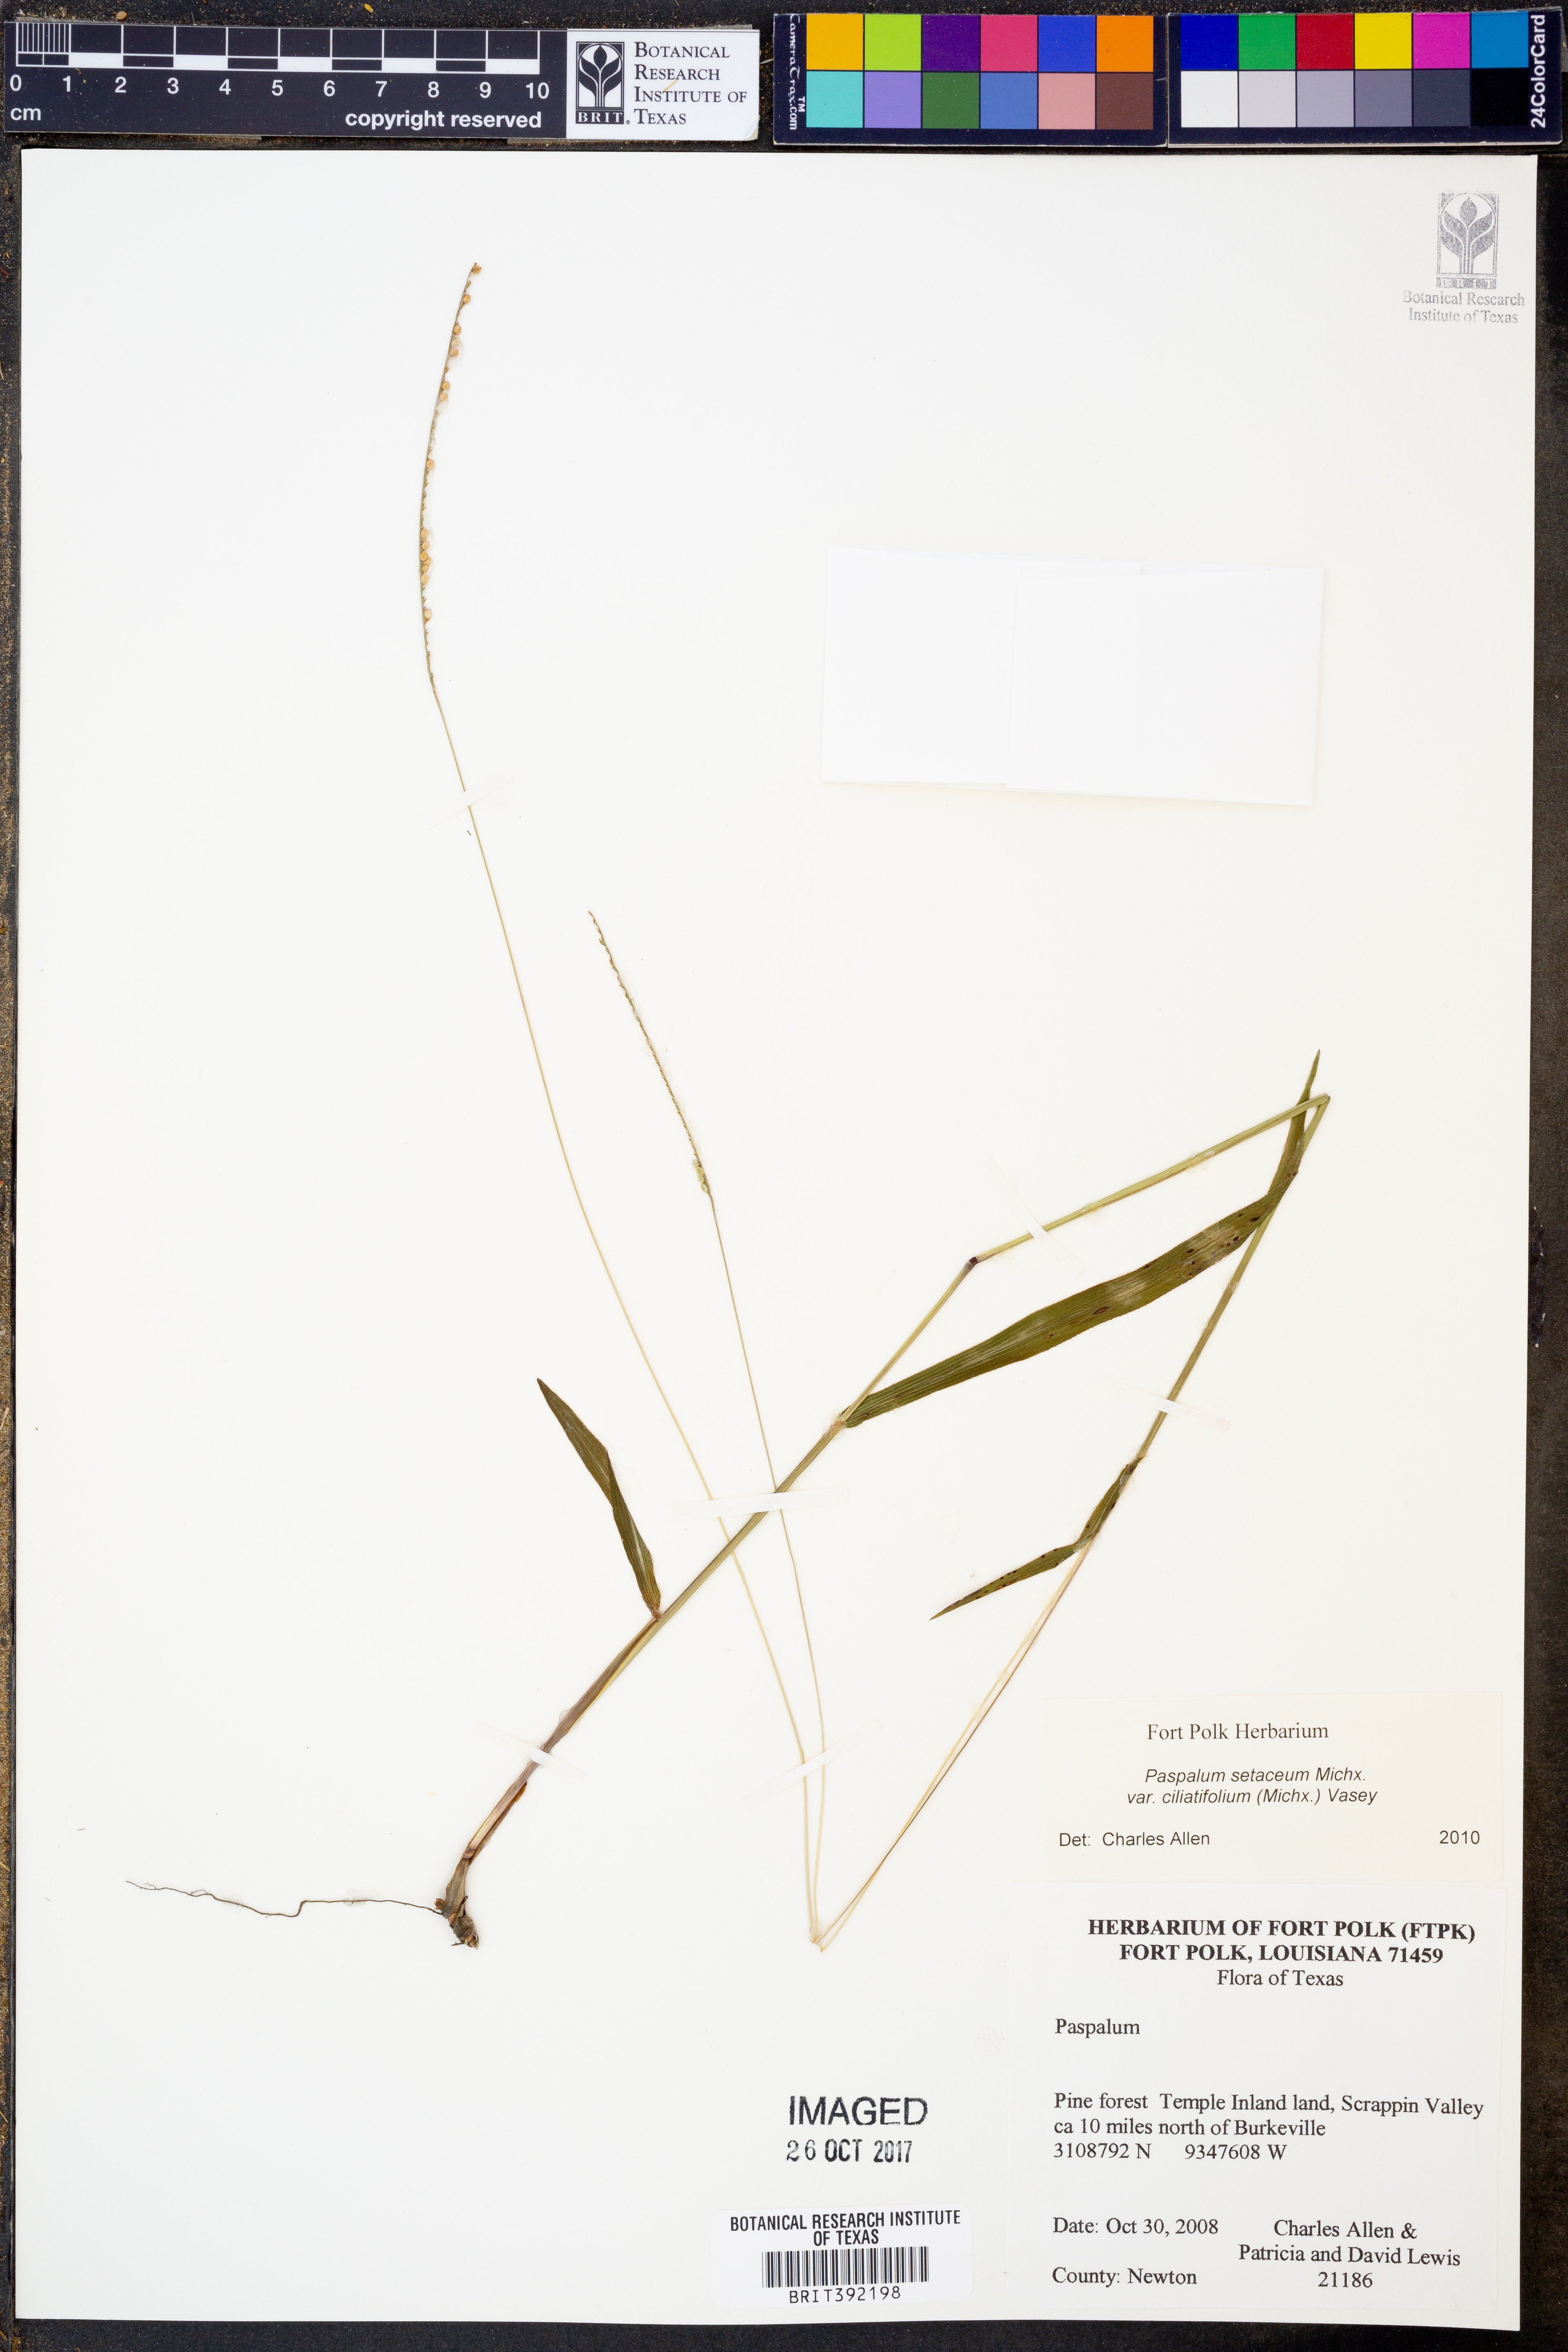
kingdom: Plantae
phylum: Tracheophyta
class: Liliopsida
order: Poales
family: Poaceae
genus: Paspalum
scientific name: Paspalum setaceum
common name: Slender paspalum
